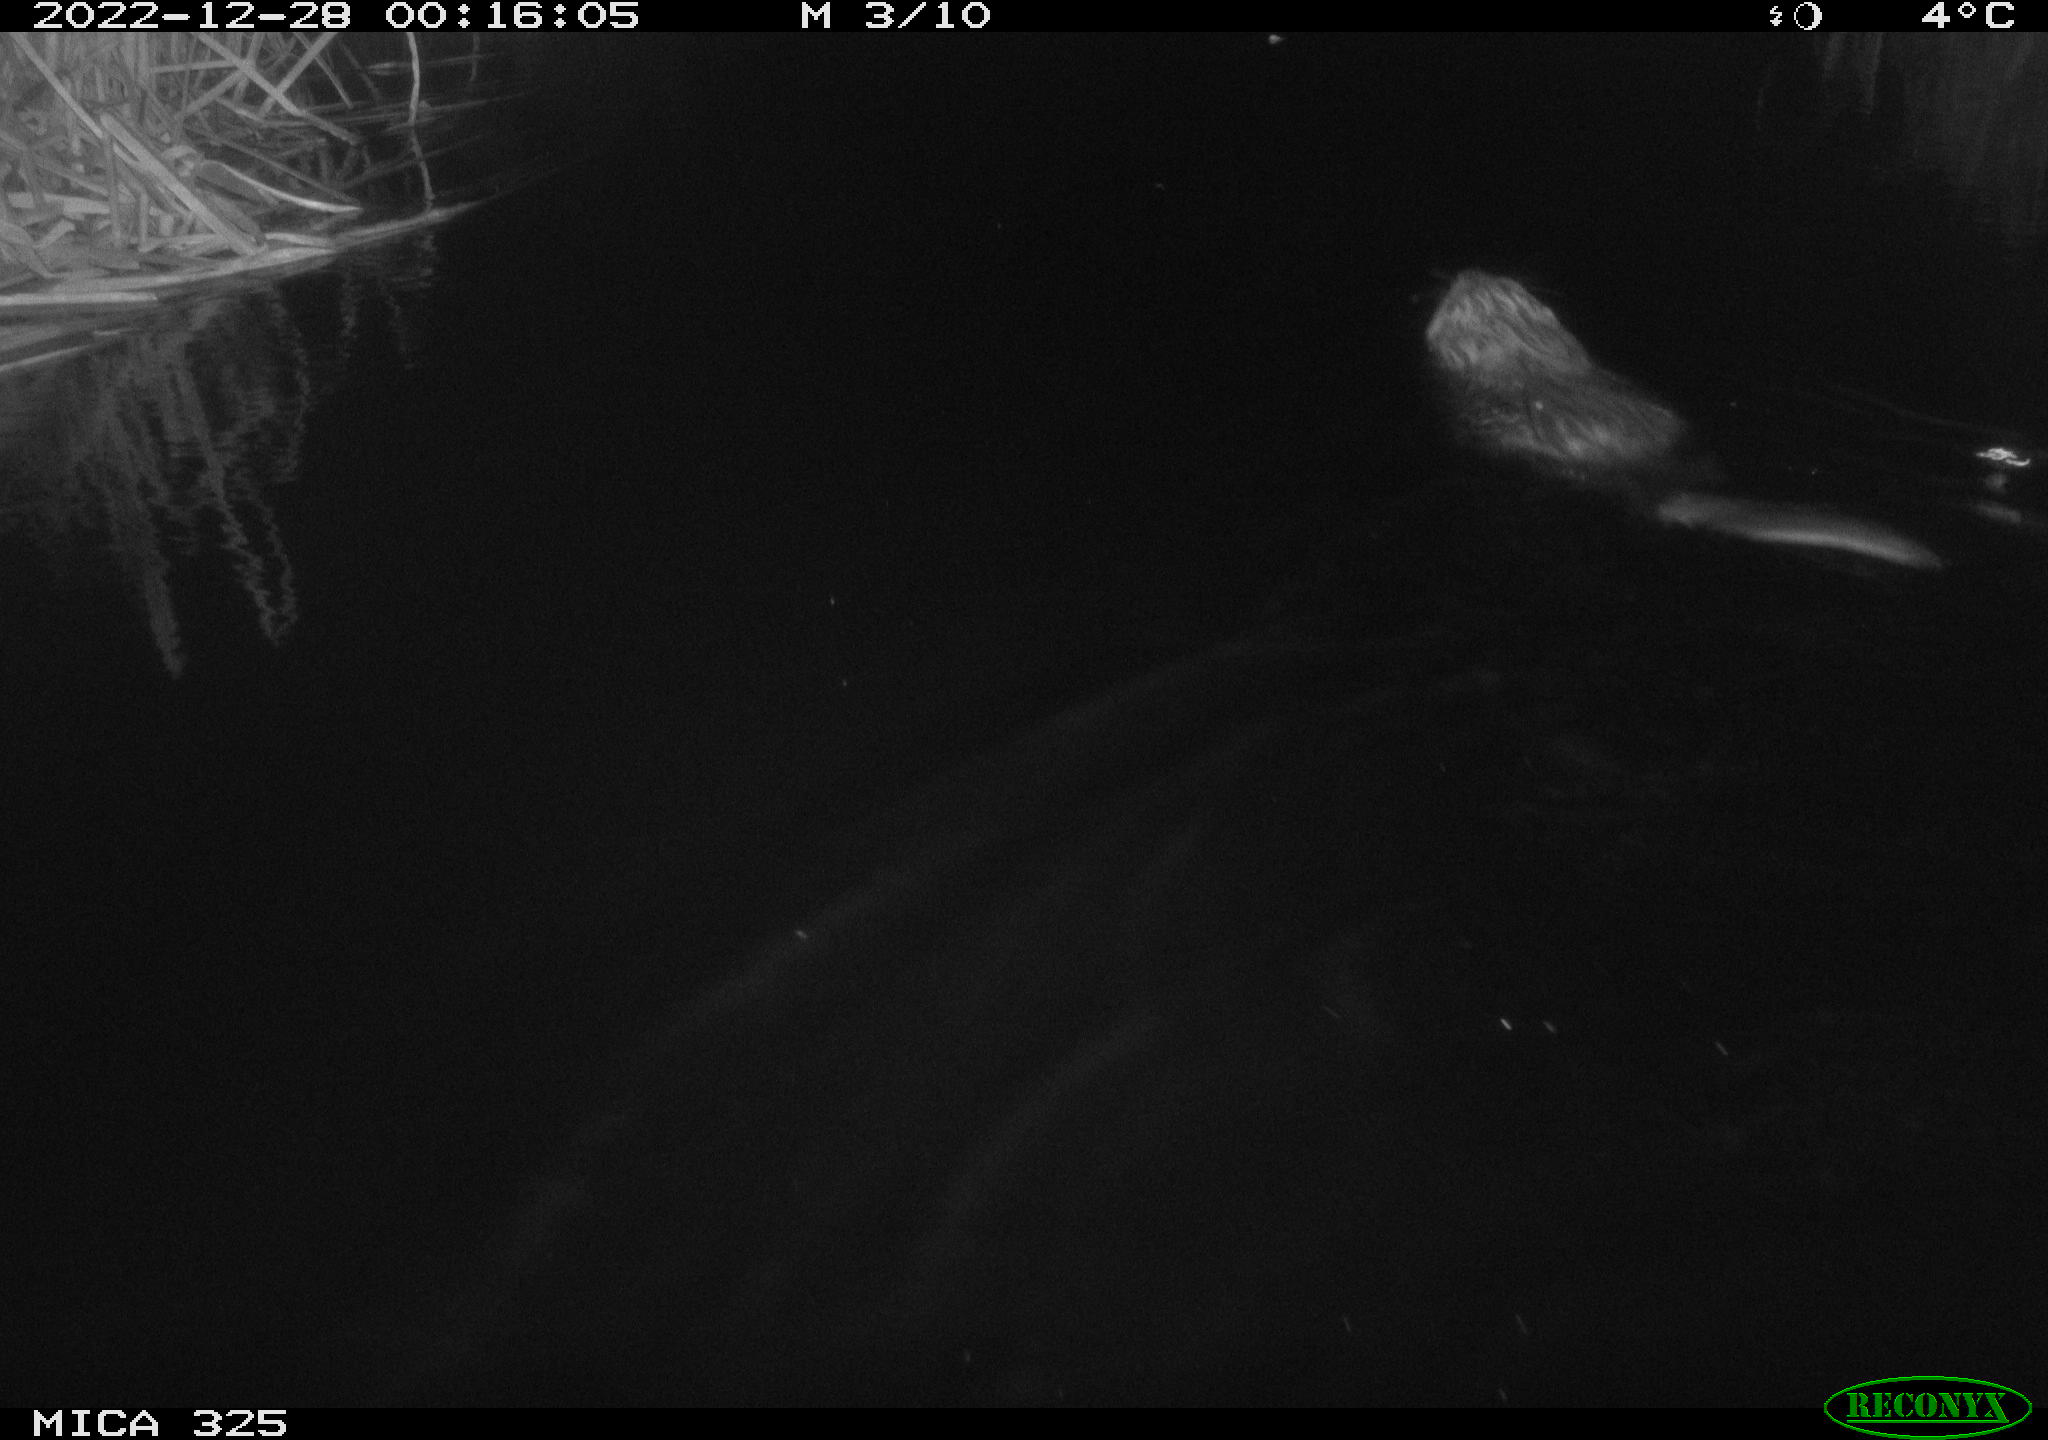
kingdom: Animalia
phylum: Chordata
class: Mammalia
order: Rodentia
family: Castoridae
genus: Castor
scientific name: Castor fiber
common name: Eurasian beaver
